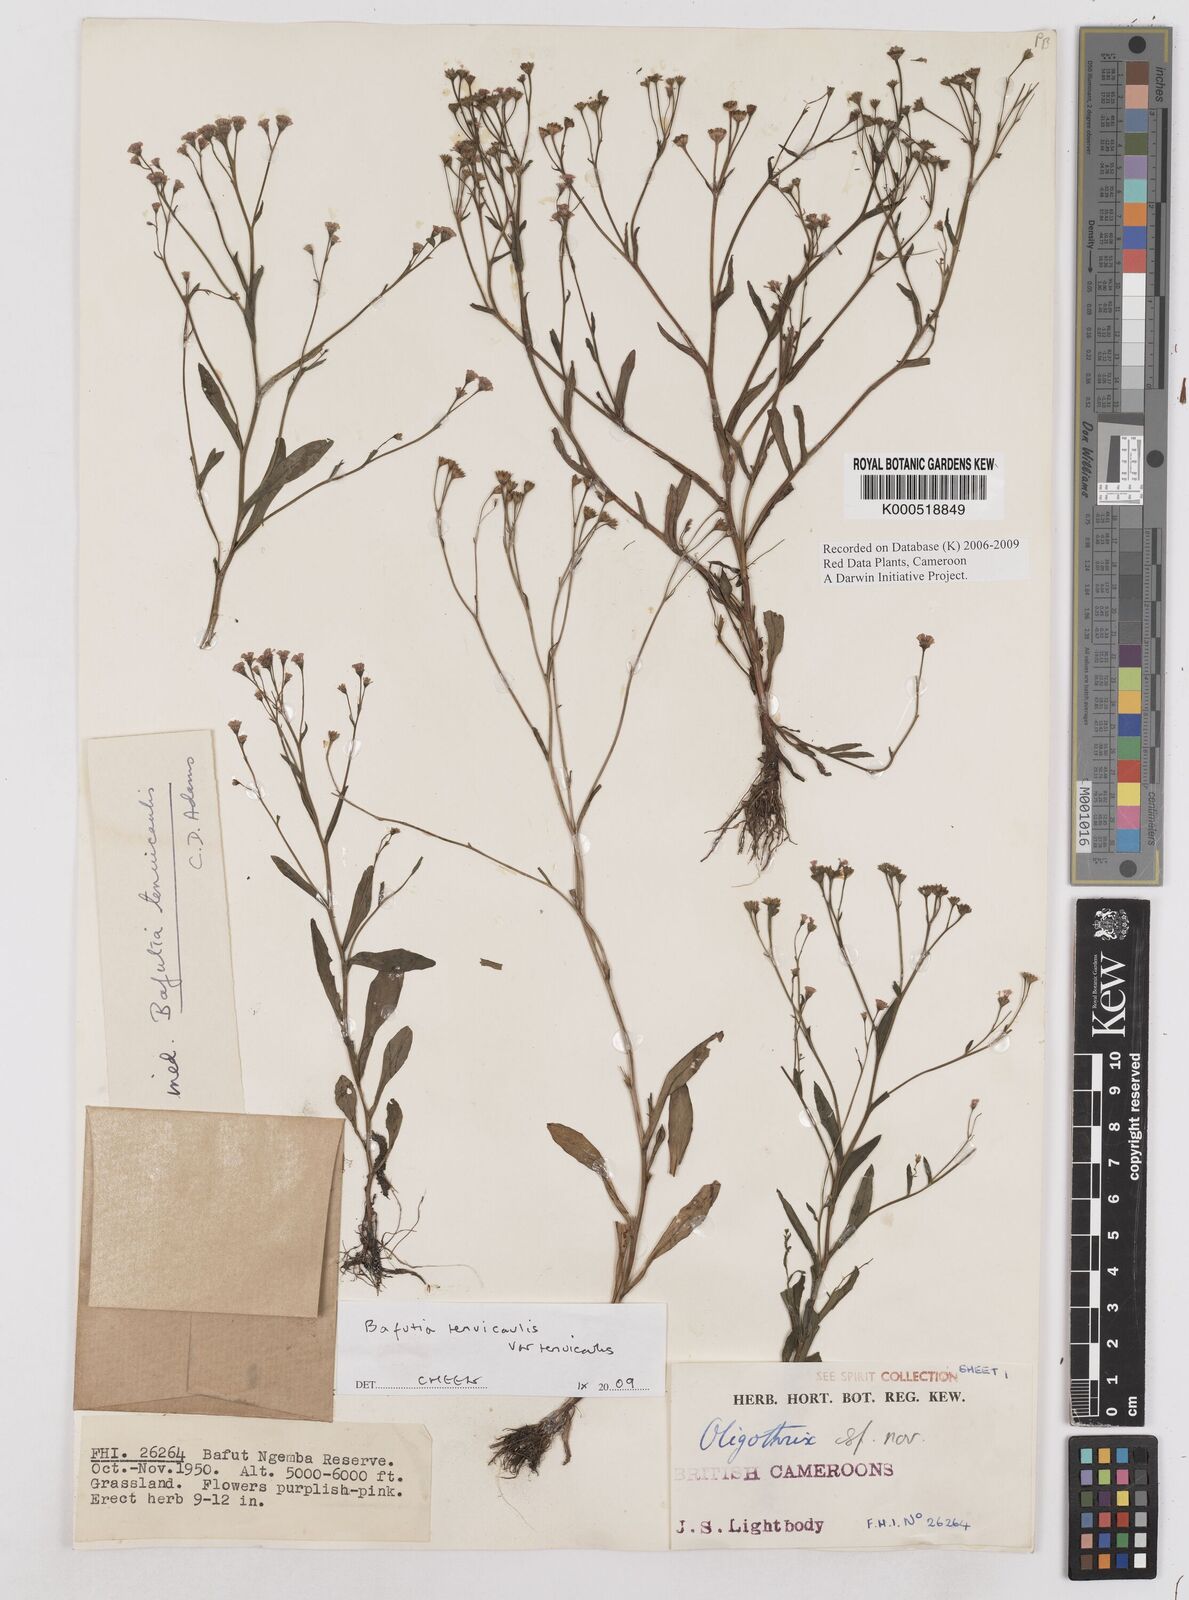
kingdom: Plantae
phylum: Tracheophyta
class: Magnoliopsida
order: Asterales
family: Asteraceae
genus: Emilia
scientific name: Emilia tenuicaulis
